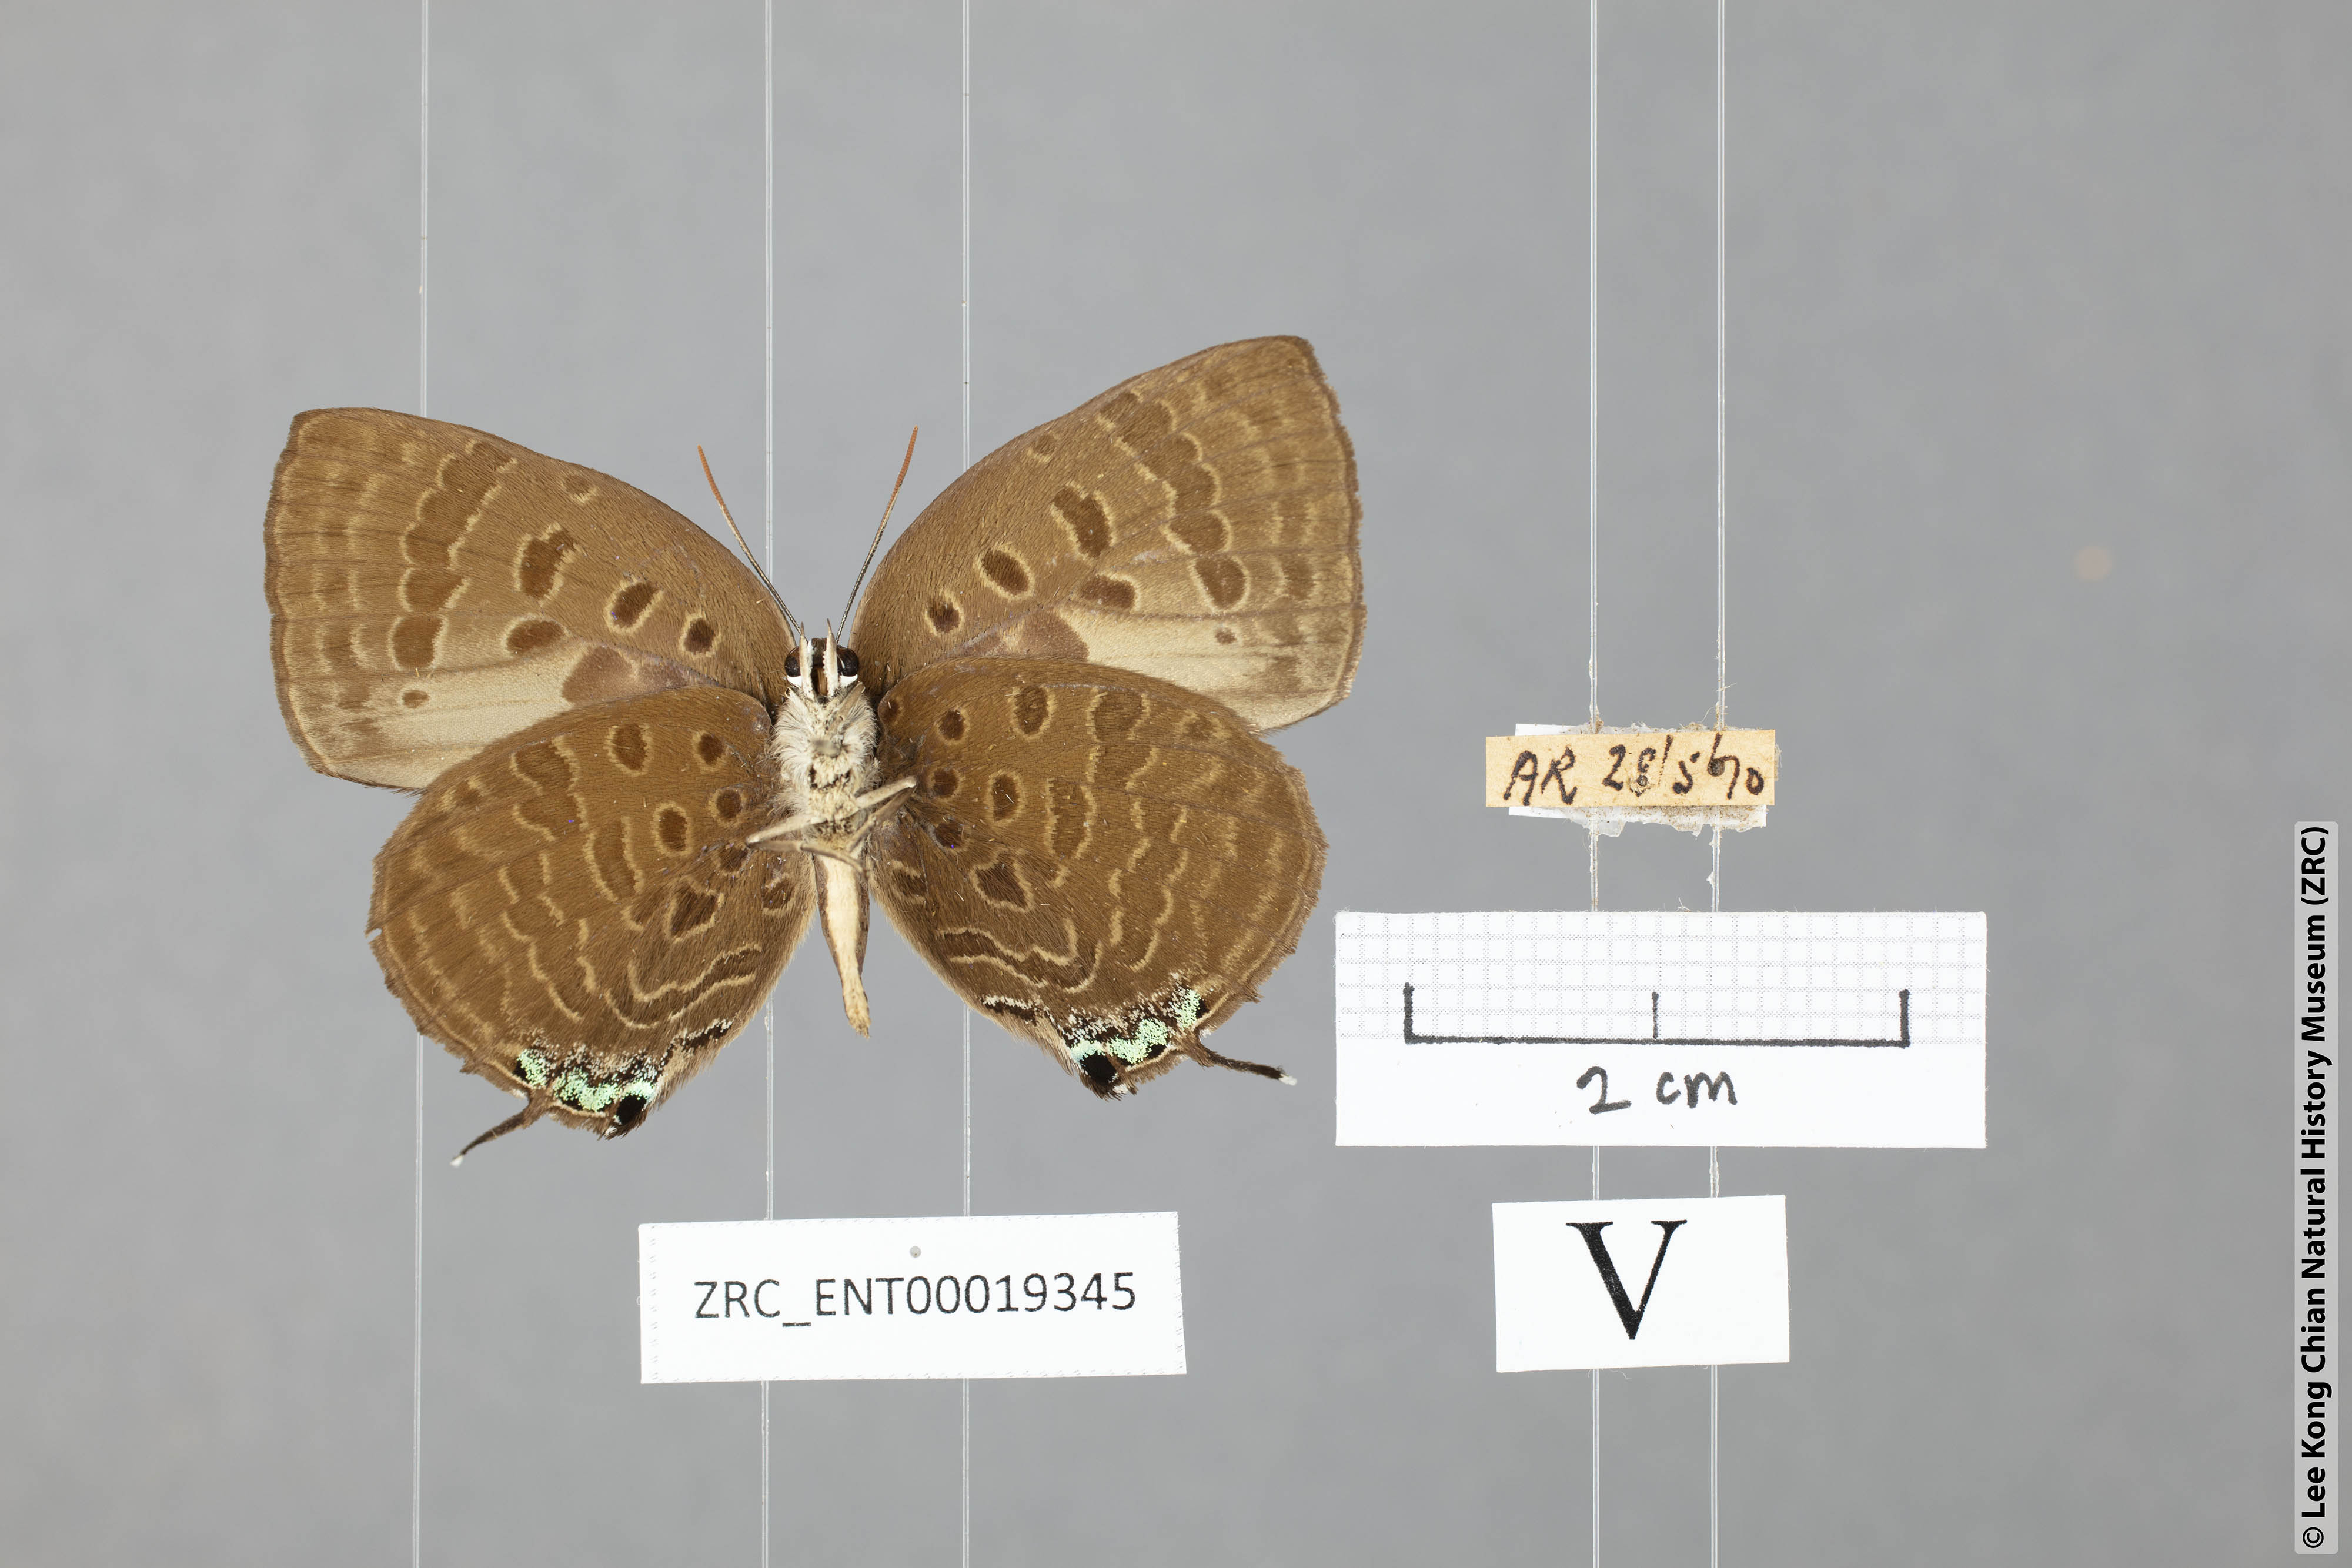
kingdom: Animalia
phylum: Arthropoda
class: Insecta
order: Lepidoptera
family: Lycaenidae
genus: Arhopala
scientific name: Arhopala cleander
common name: Large mergui oakblue
